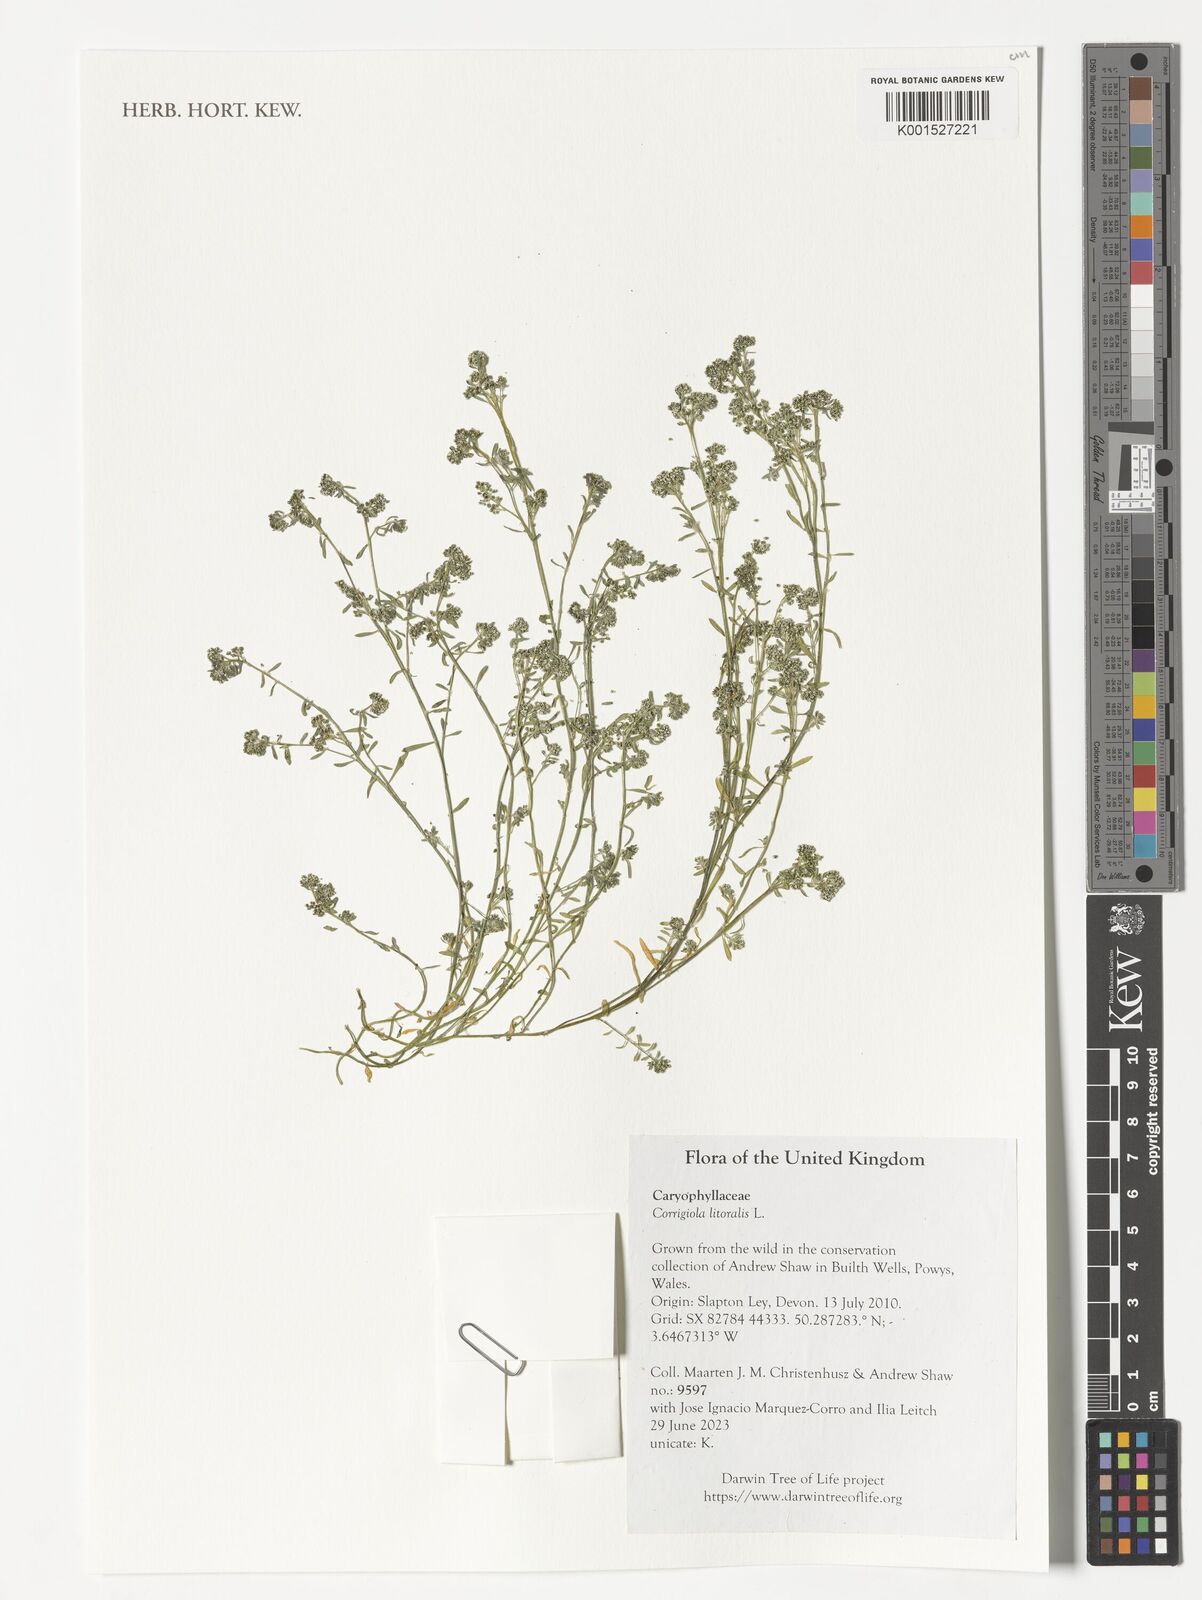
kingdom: Plantae
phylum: Tracheophyta
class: Magnoliopsida
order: Caryophyllales
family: Caryophyllaceae
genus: Corrigiola
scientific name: Corrigiola litoralis
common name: Strapwort
